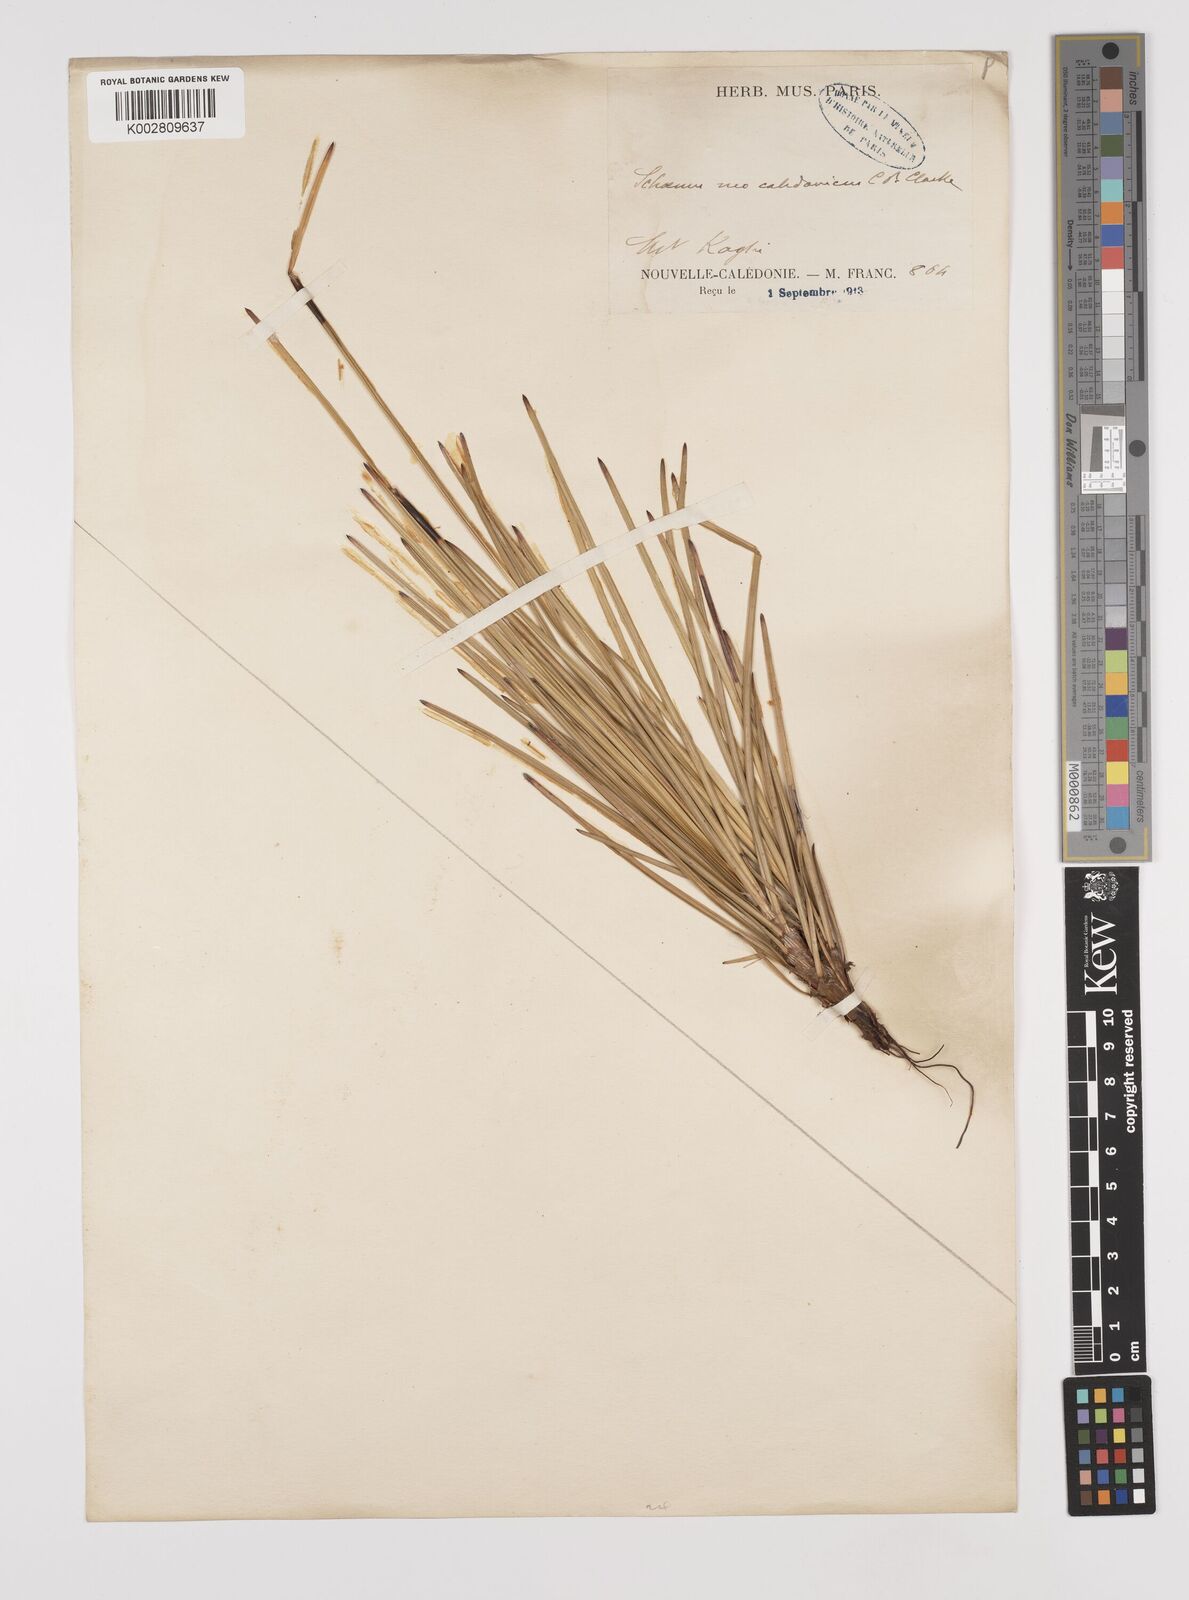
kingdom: Plantae
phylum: Tracheophyta
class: Liliopsida
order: Poales
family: Cyperaceae
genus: Schoenus
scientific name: Schoenus neocaledonicus
